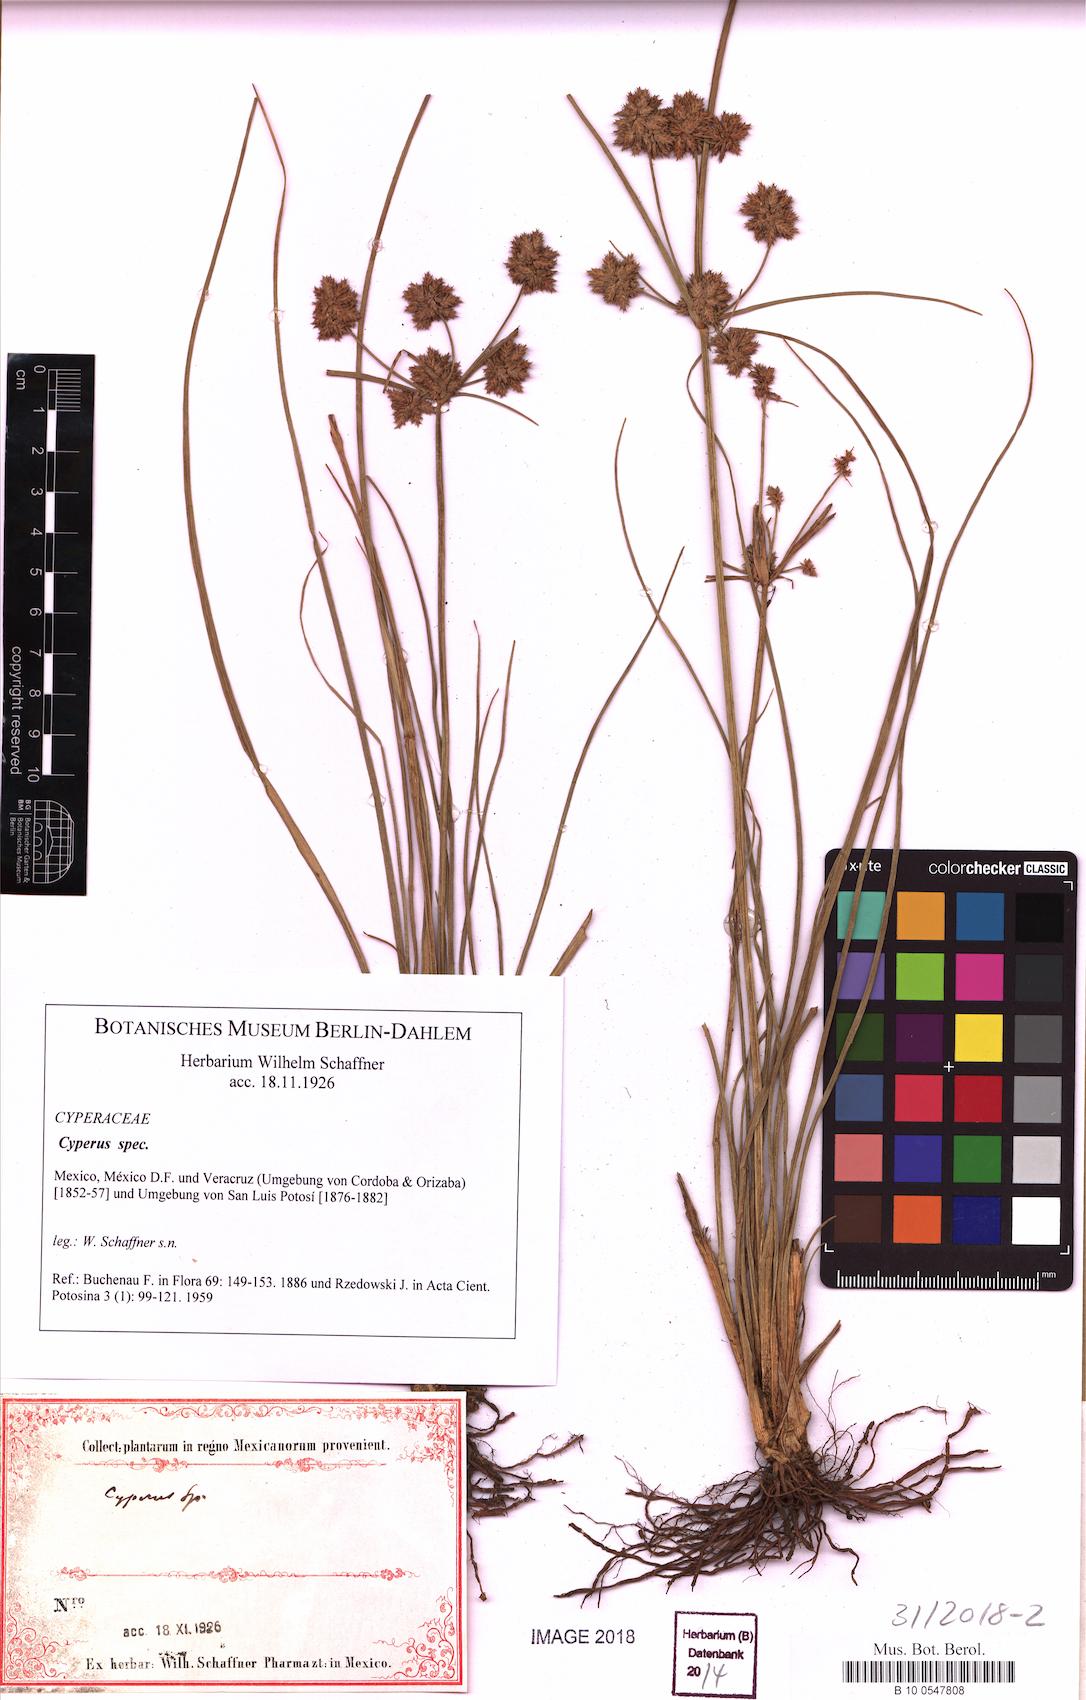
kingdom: Plantae
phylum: Tracheophyta
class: Liliopsida
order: Poales
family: Cyperaceae
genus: Cyperus
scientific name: Cyperus
